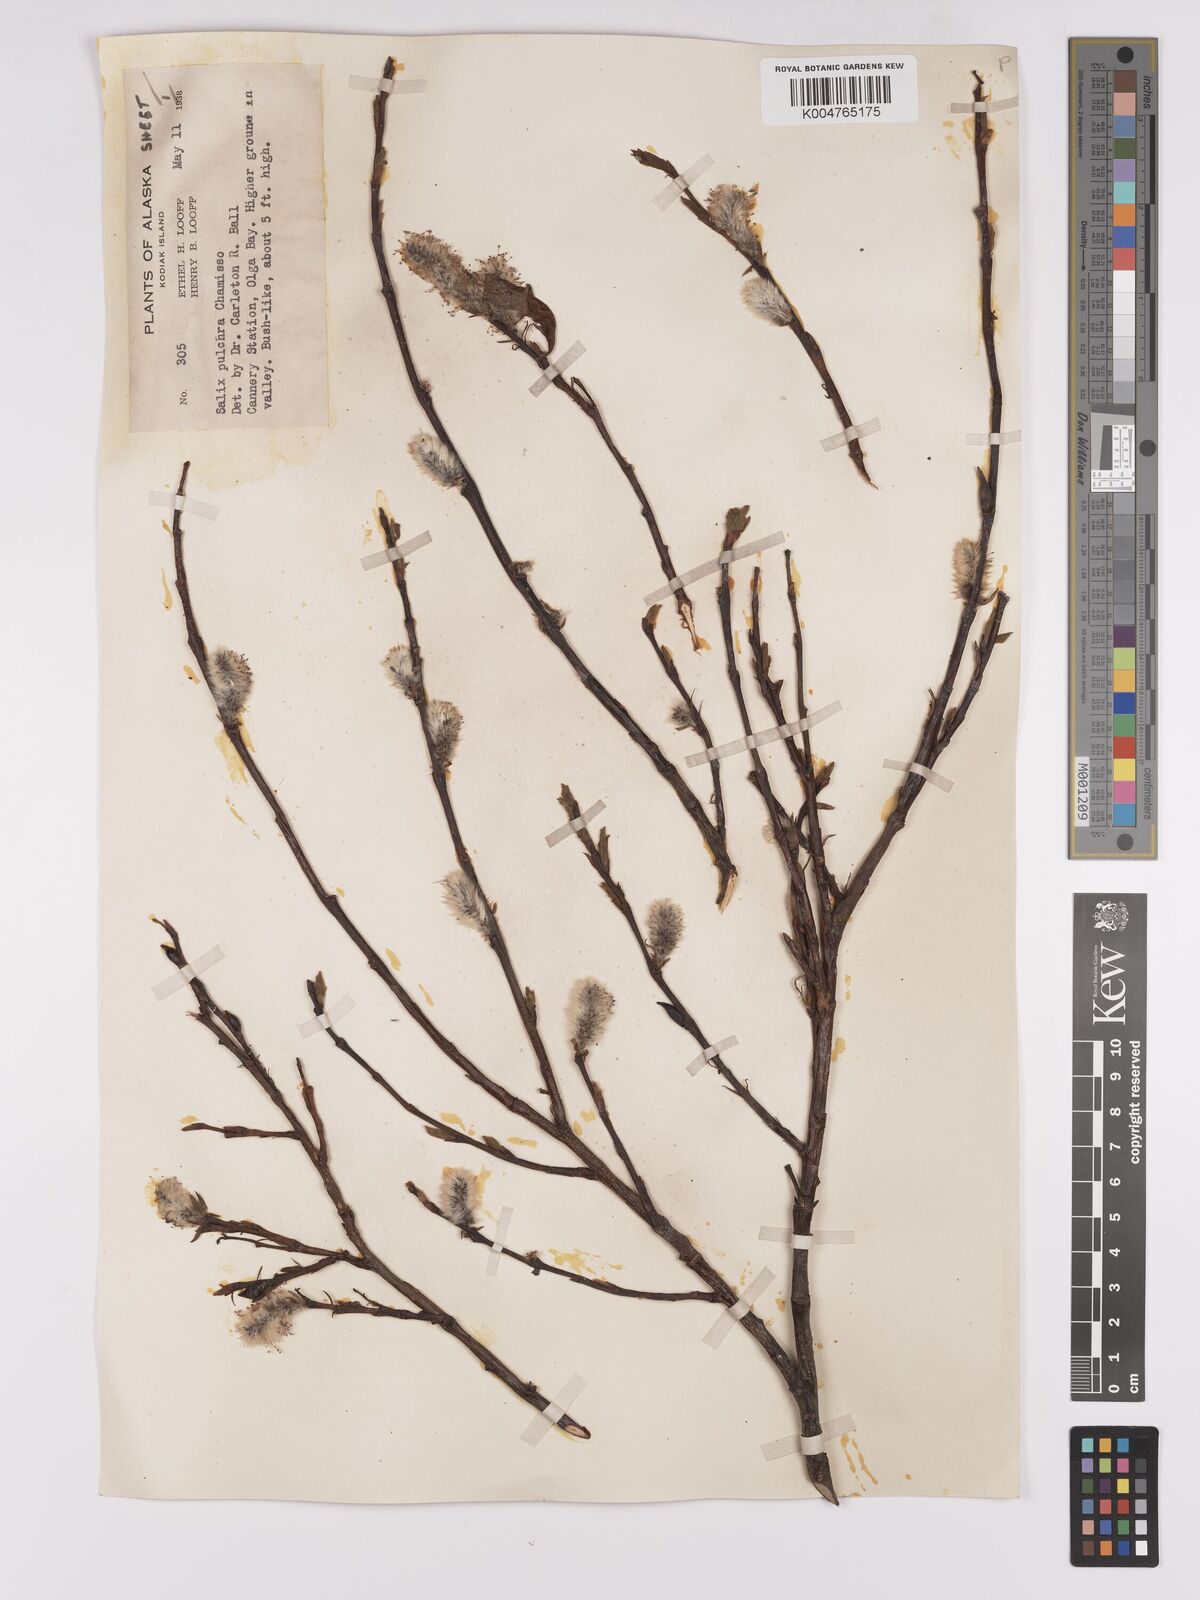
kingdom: Plantae
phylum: Tracheophyta
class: Magnoliopsida
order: Malpighiales
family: Salicaceae
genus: Salix
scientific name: Salix
